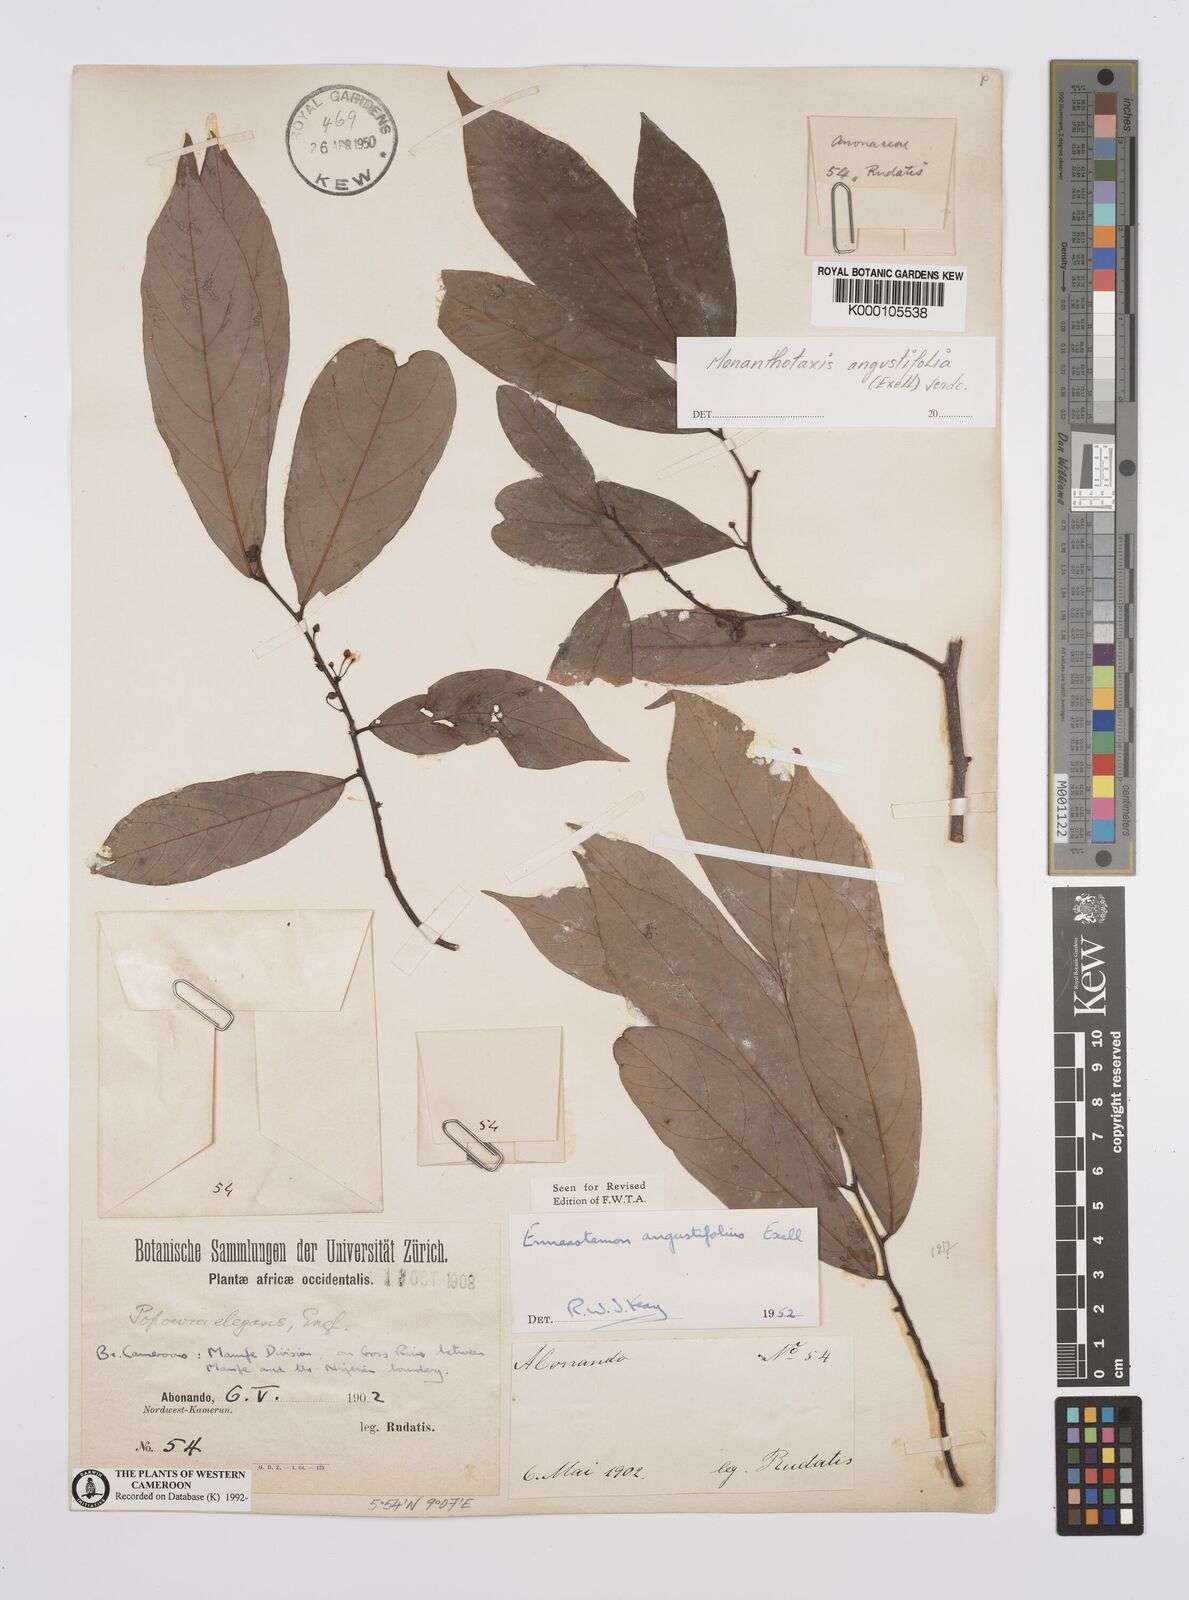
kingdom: Plantae
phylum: Tracheophyta
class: Magnoliopsida
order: Magnoliales
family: Annonaceae
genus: Monanthotaxis
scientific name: Monanthotaxis angustifolia
